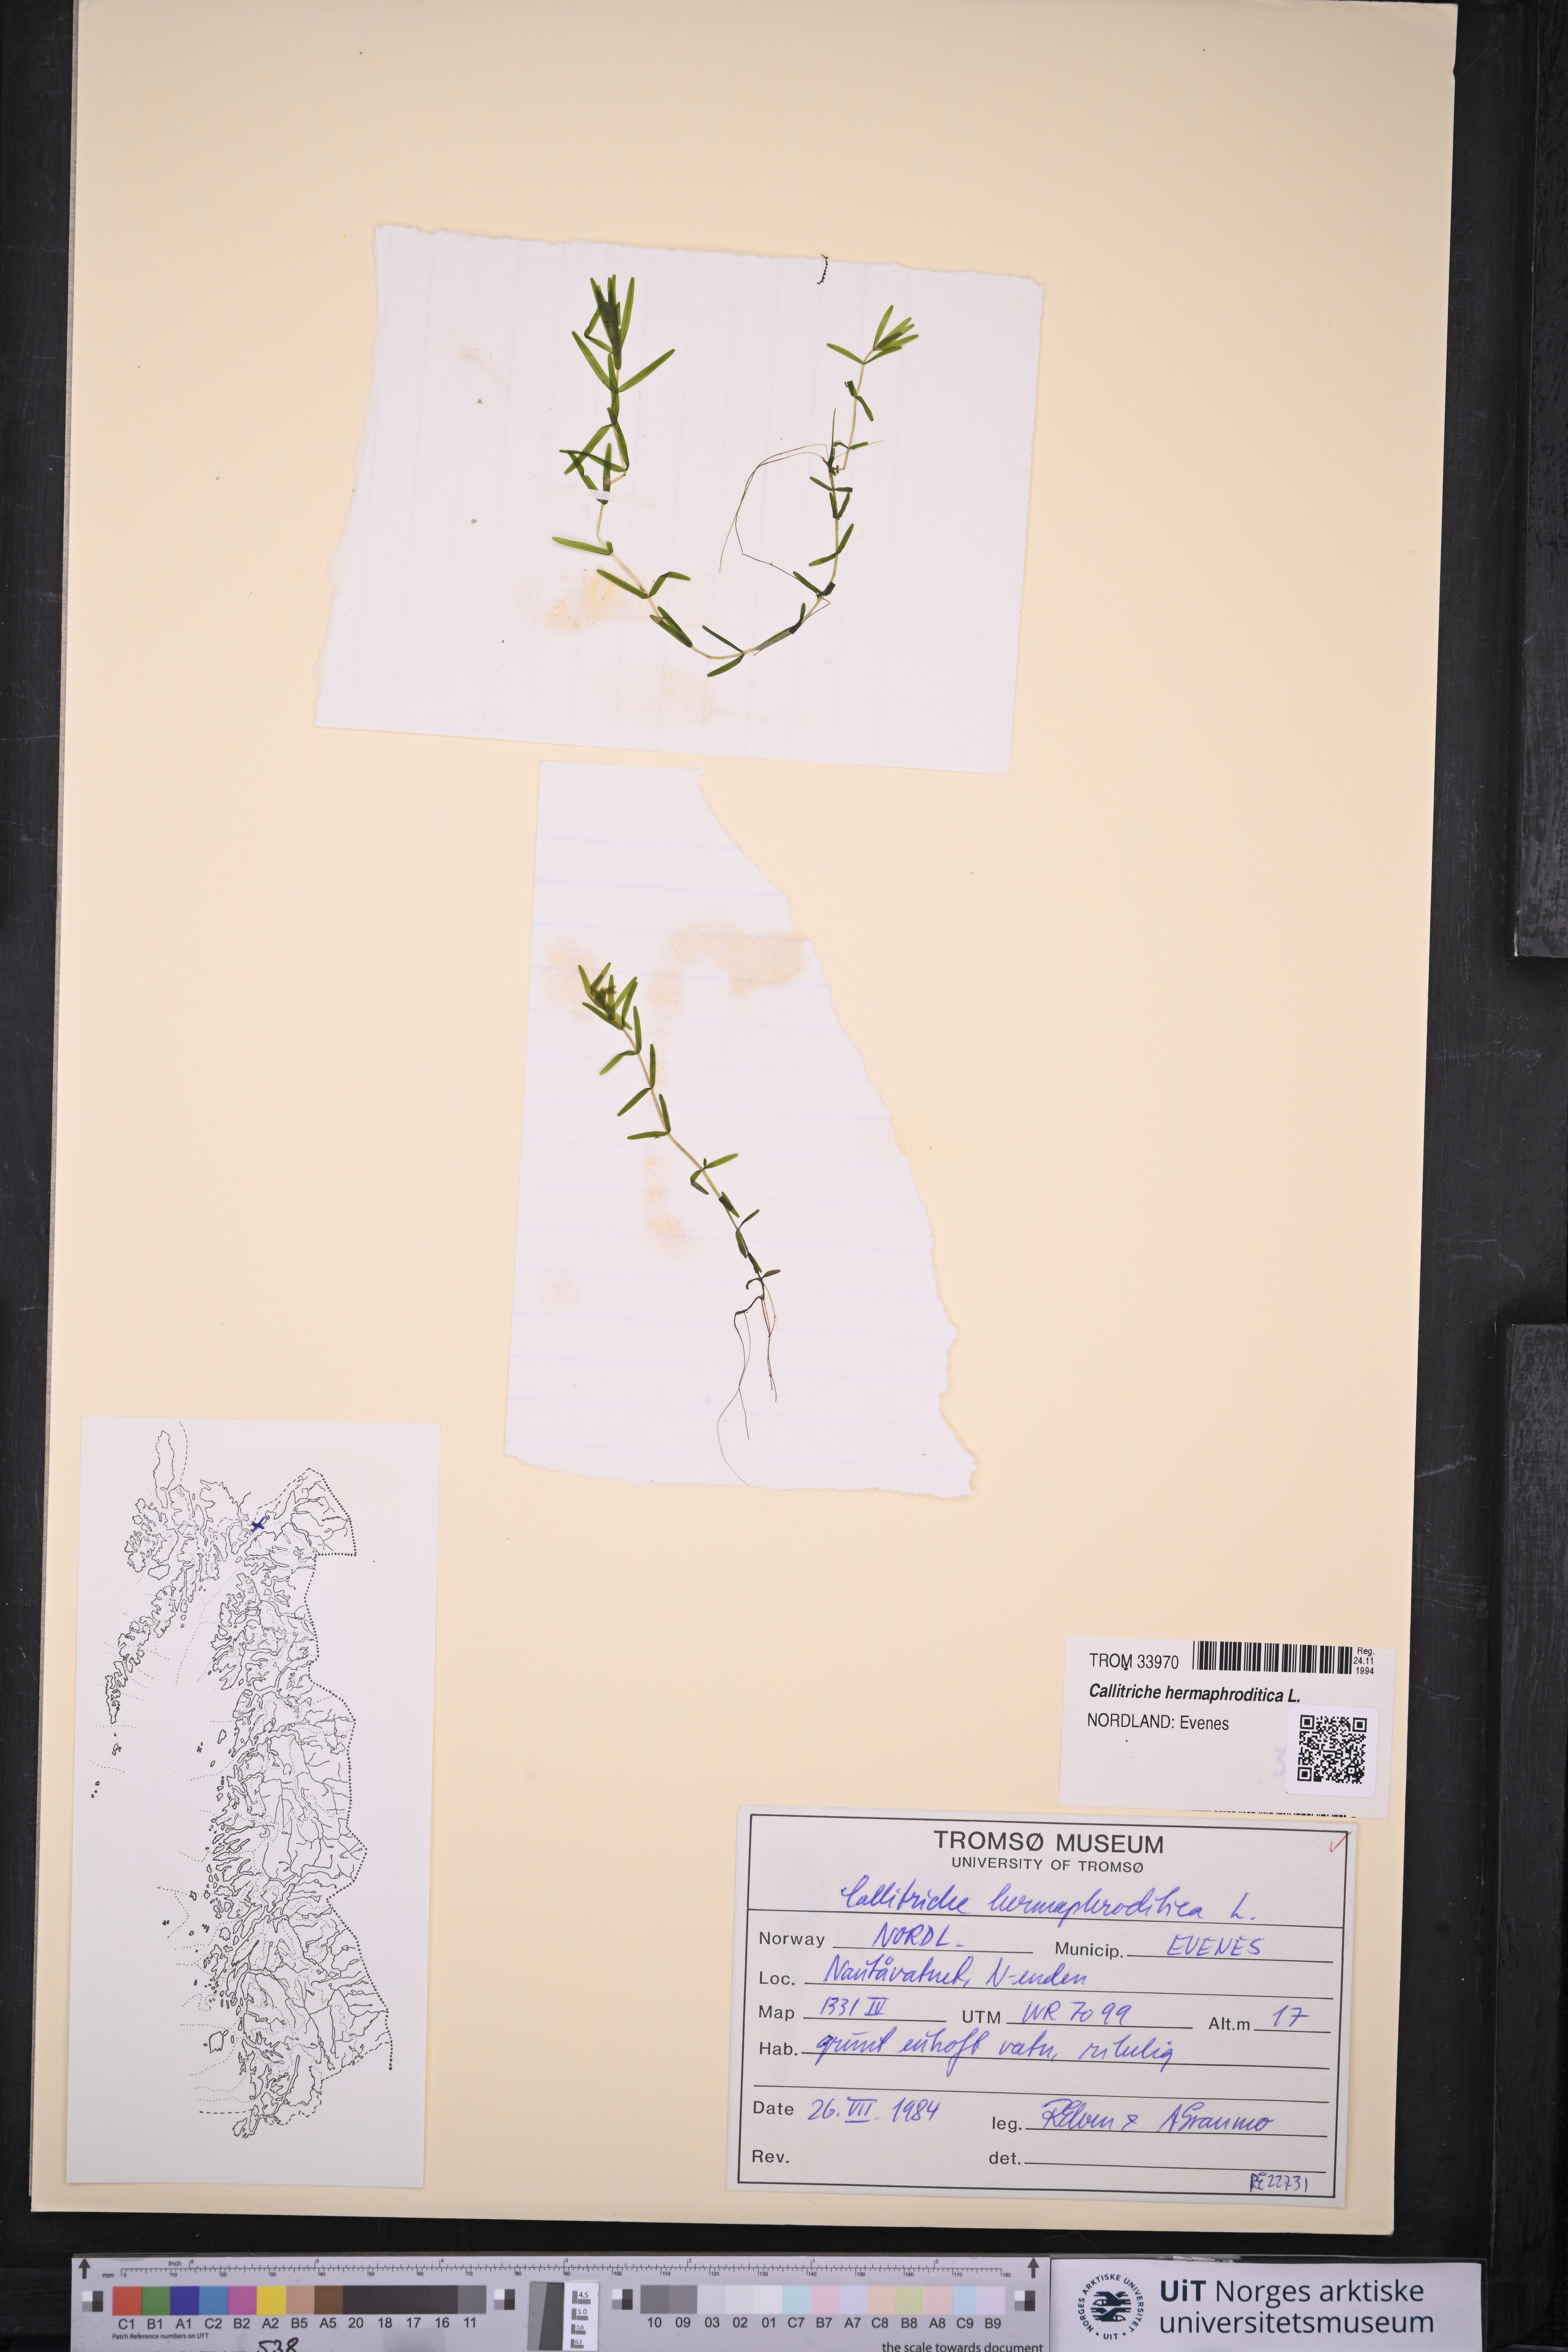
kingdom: Plantae
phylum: Tracheophyta
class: Magnoliopsida
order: Lamiales
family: Plantaginaceae
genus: Callitriche
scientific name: Callitriche hermaphroditica
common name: Autumnal water-starwort
